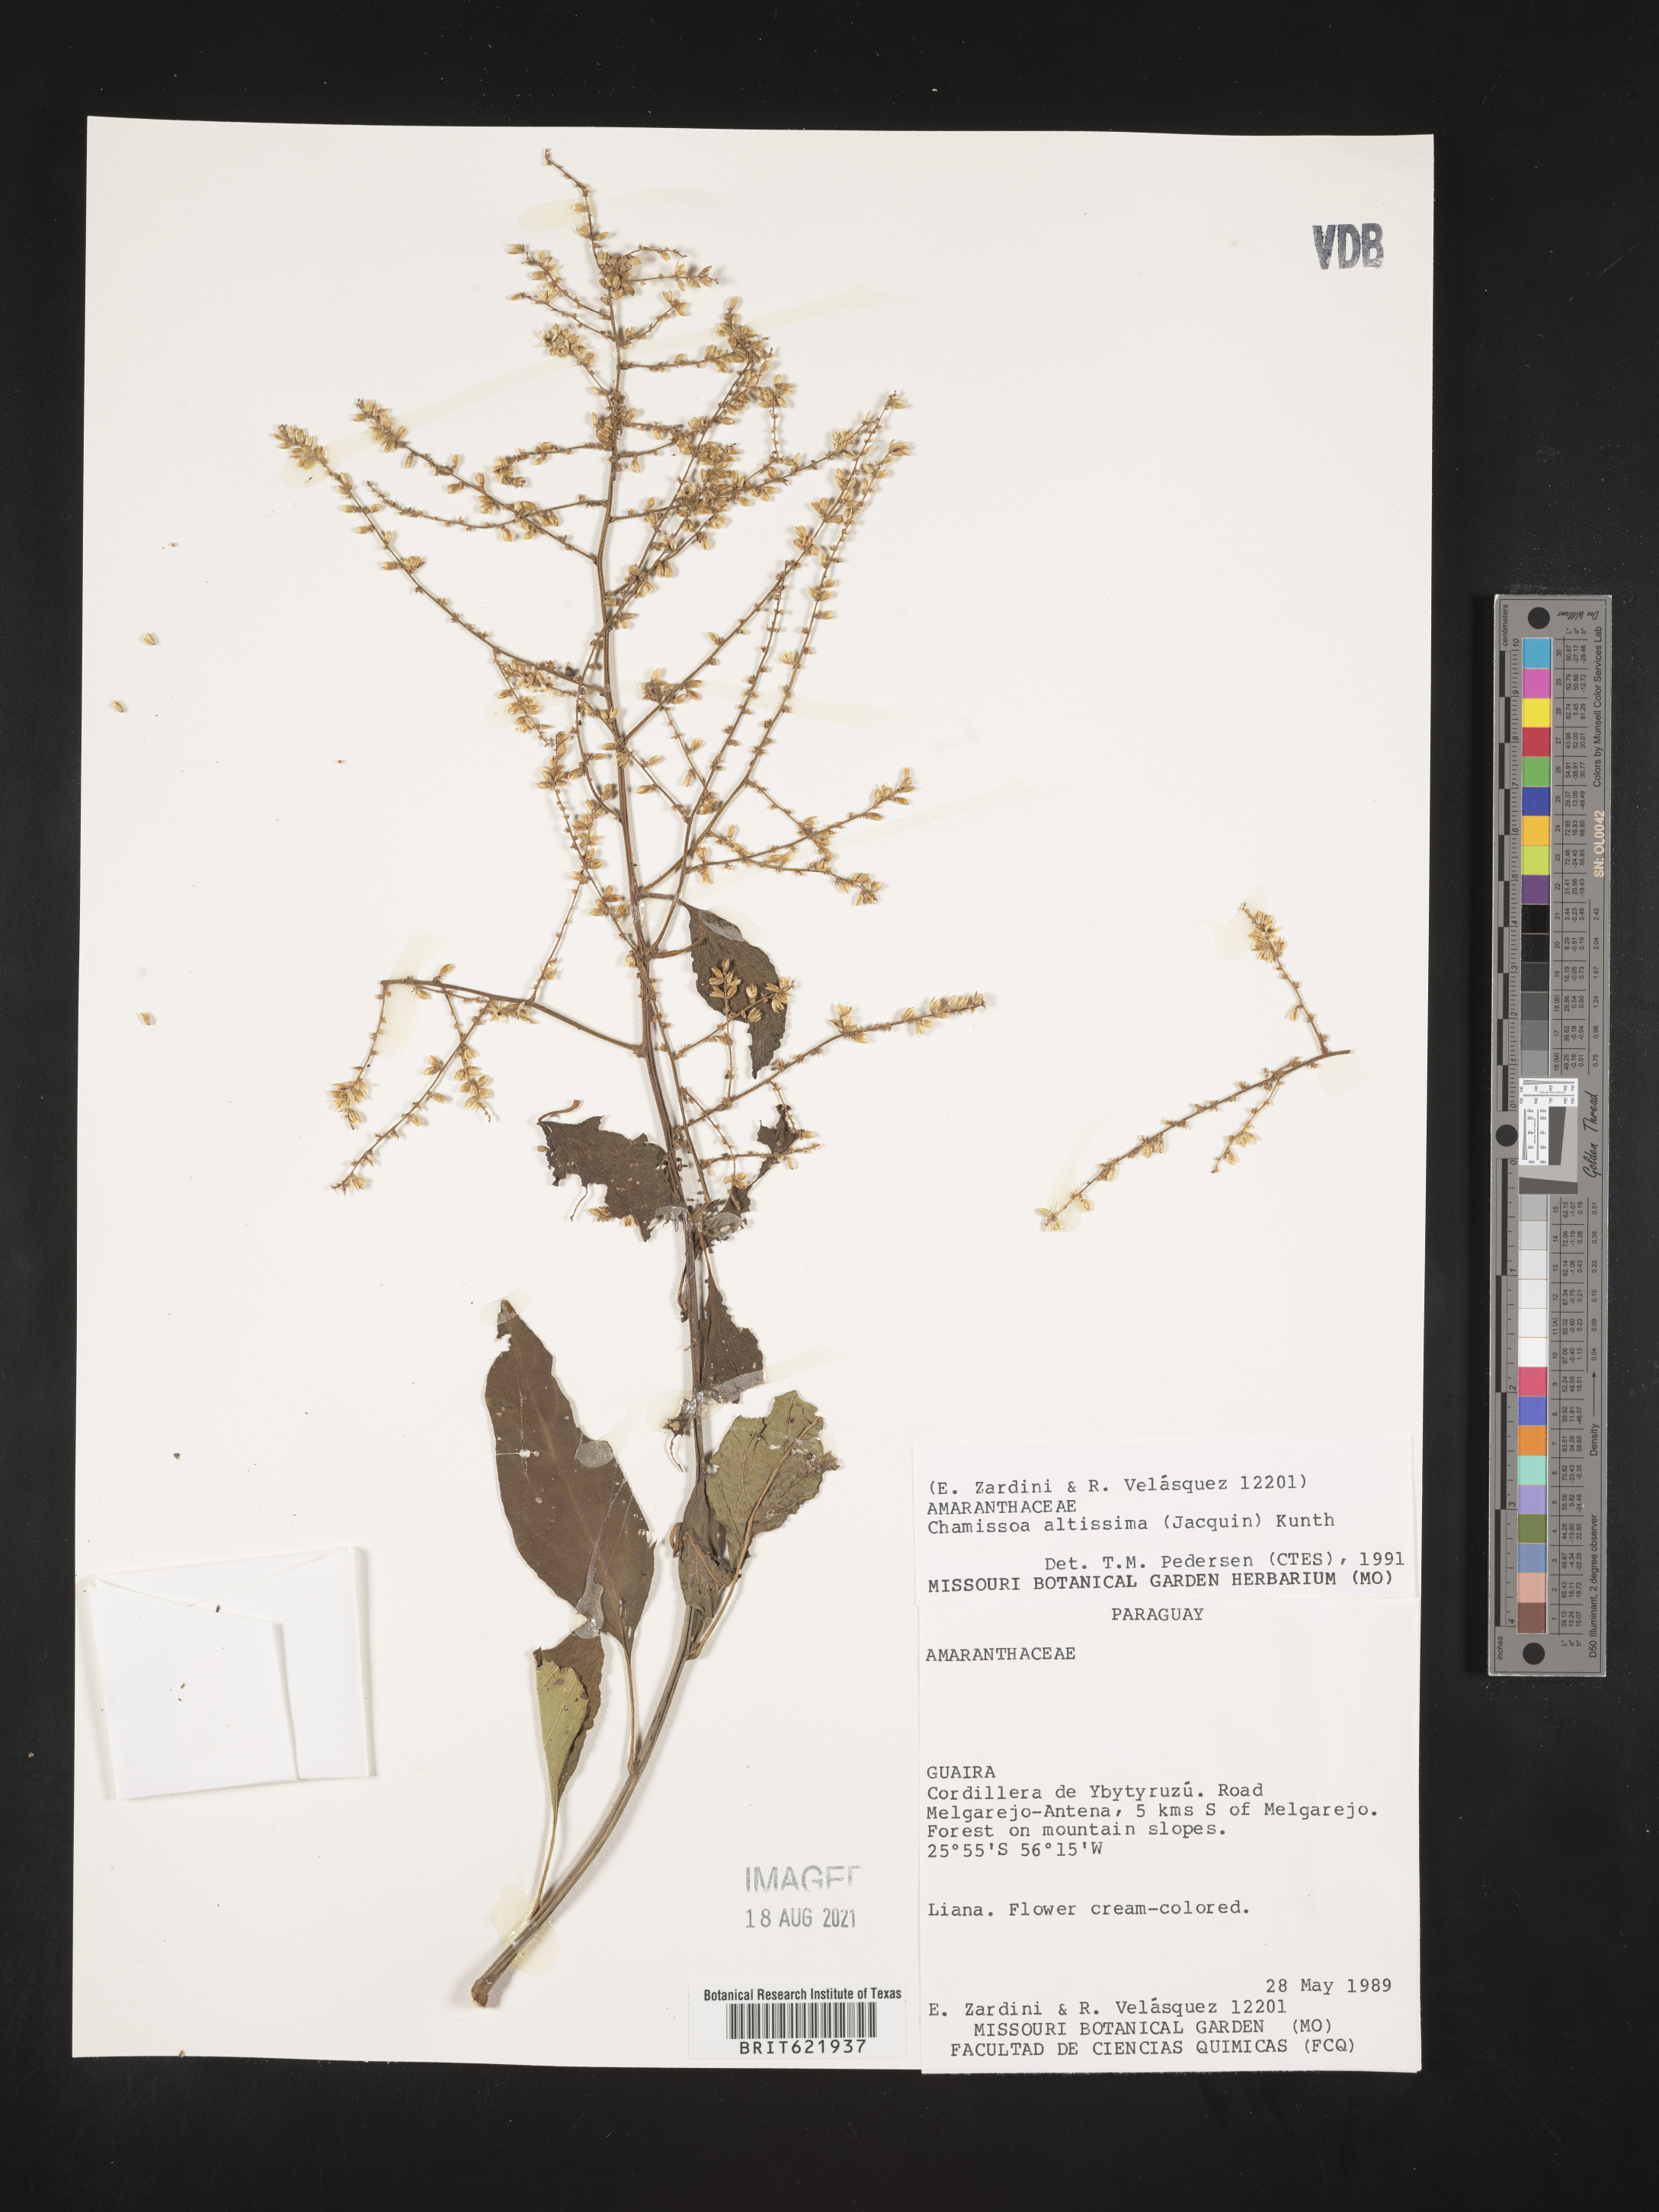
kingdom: Plantae
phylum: Tracheophyta
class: Magnoliopsida
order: Caryophyllales
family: Amaranthaceae
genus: Chamissoa
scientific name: Chamissoa altissima
